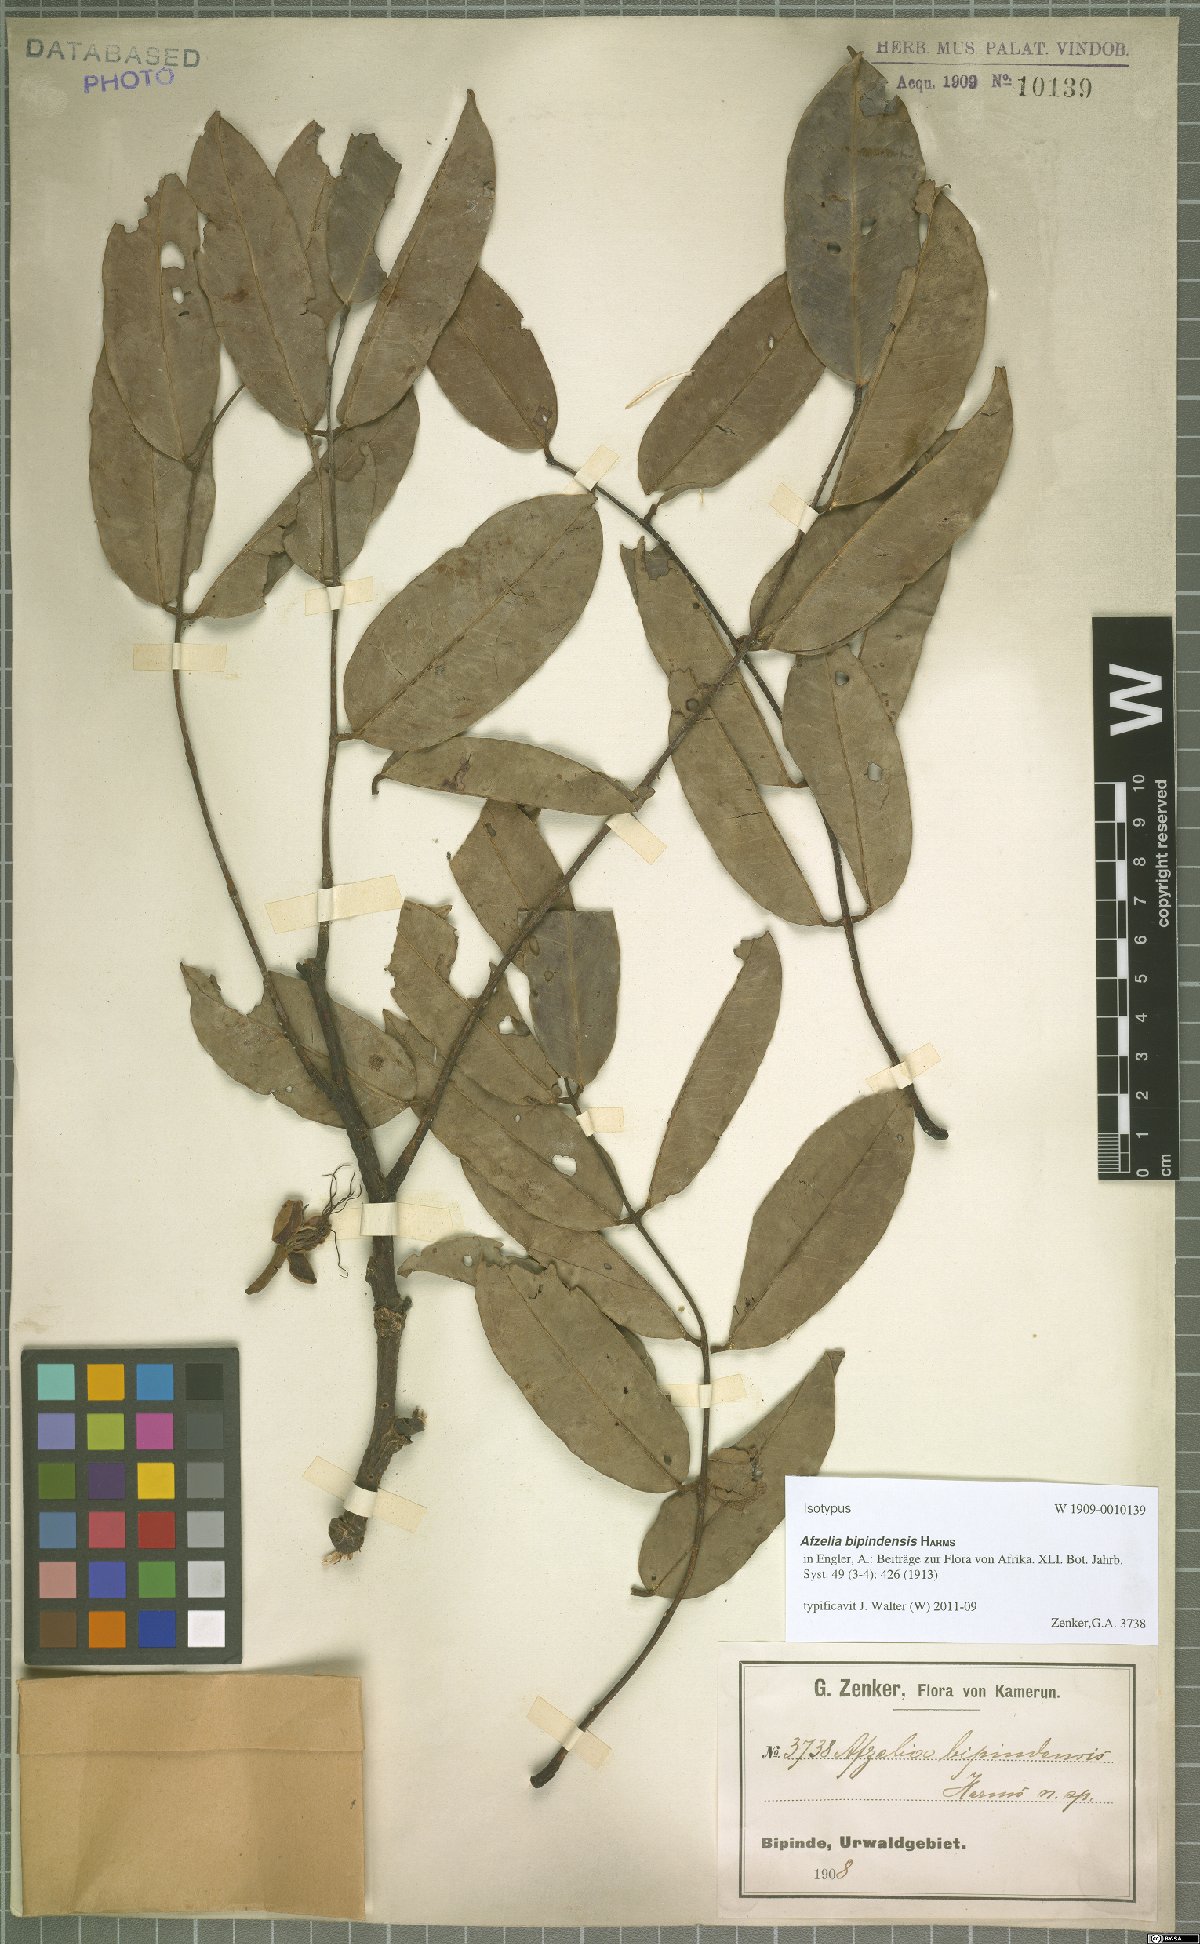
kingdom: Plantae
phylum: Tracheophyta
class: Magnoliopsida
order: Fabales
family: Fabaceae
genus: Afzelia
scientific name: Afzelia bipindensis
